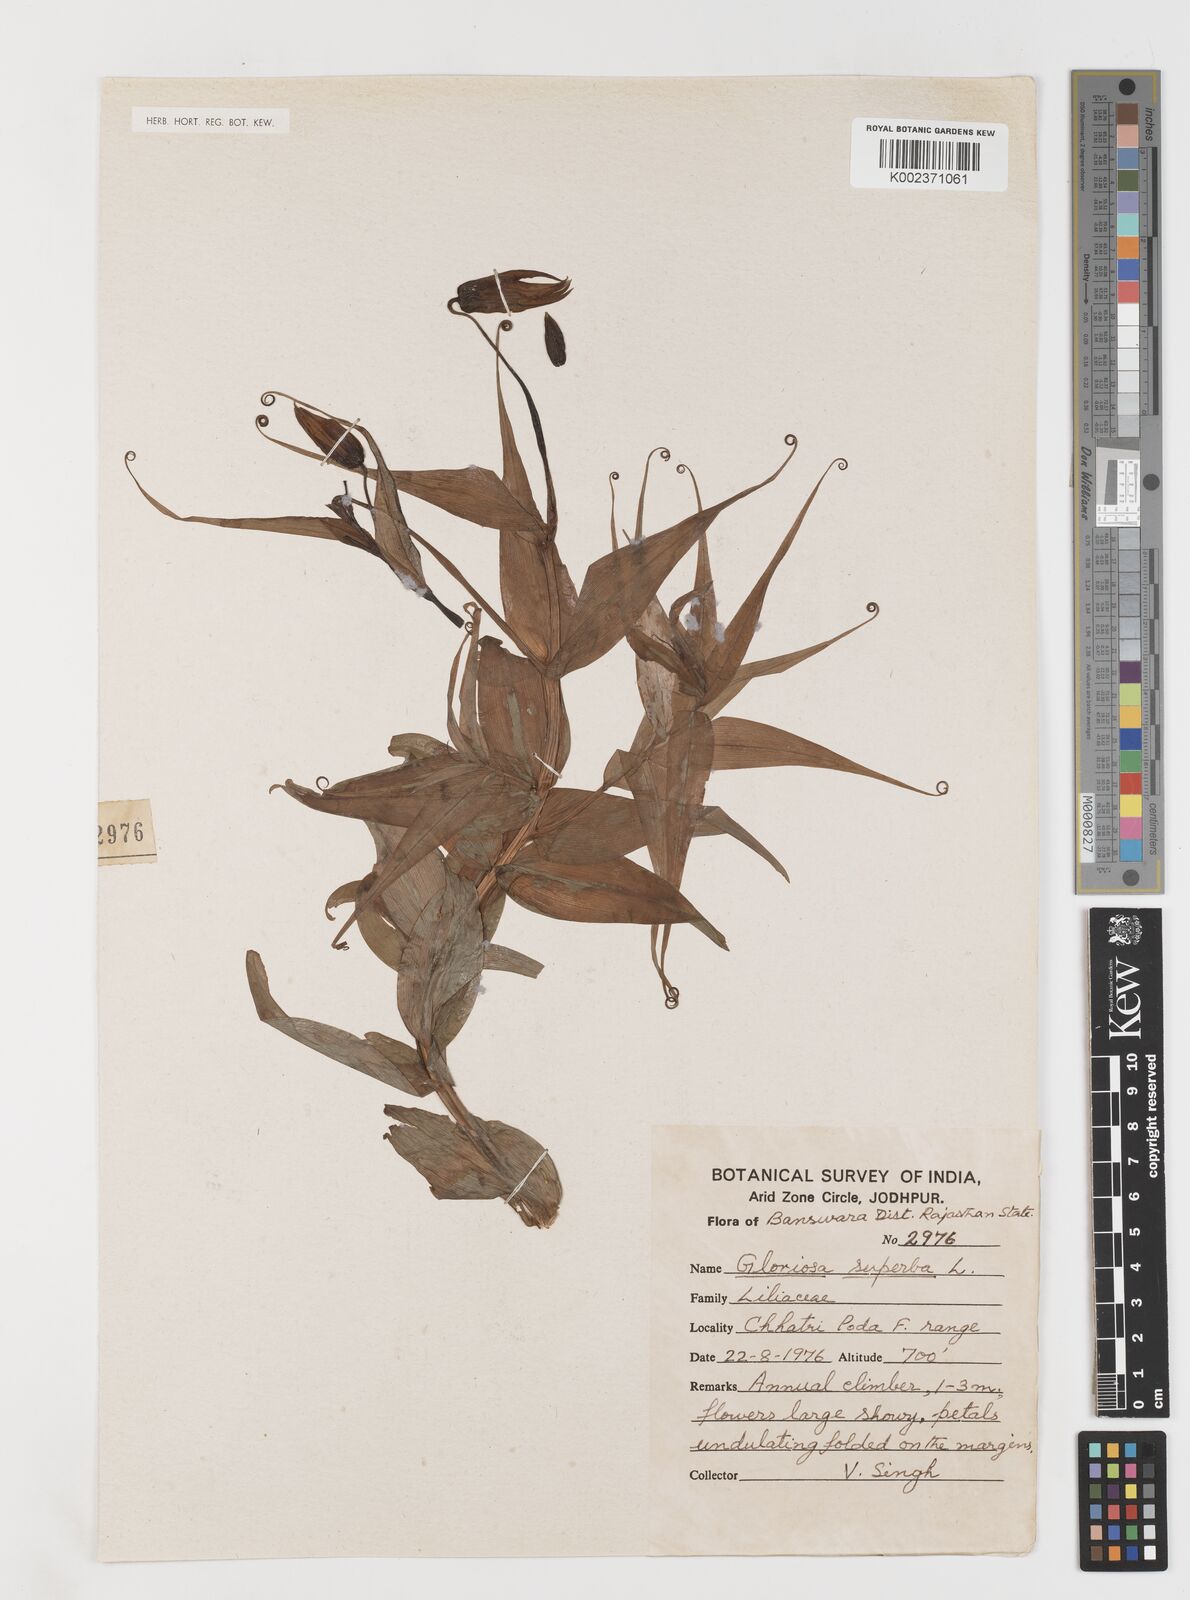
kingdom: Plantae
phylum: Tracheophyta
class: Liliopsida
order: Liliales
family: Colchicaceae
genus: Gloriosa
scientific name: Gloriosa superba
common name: Flame lily
